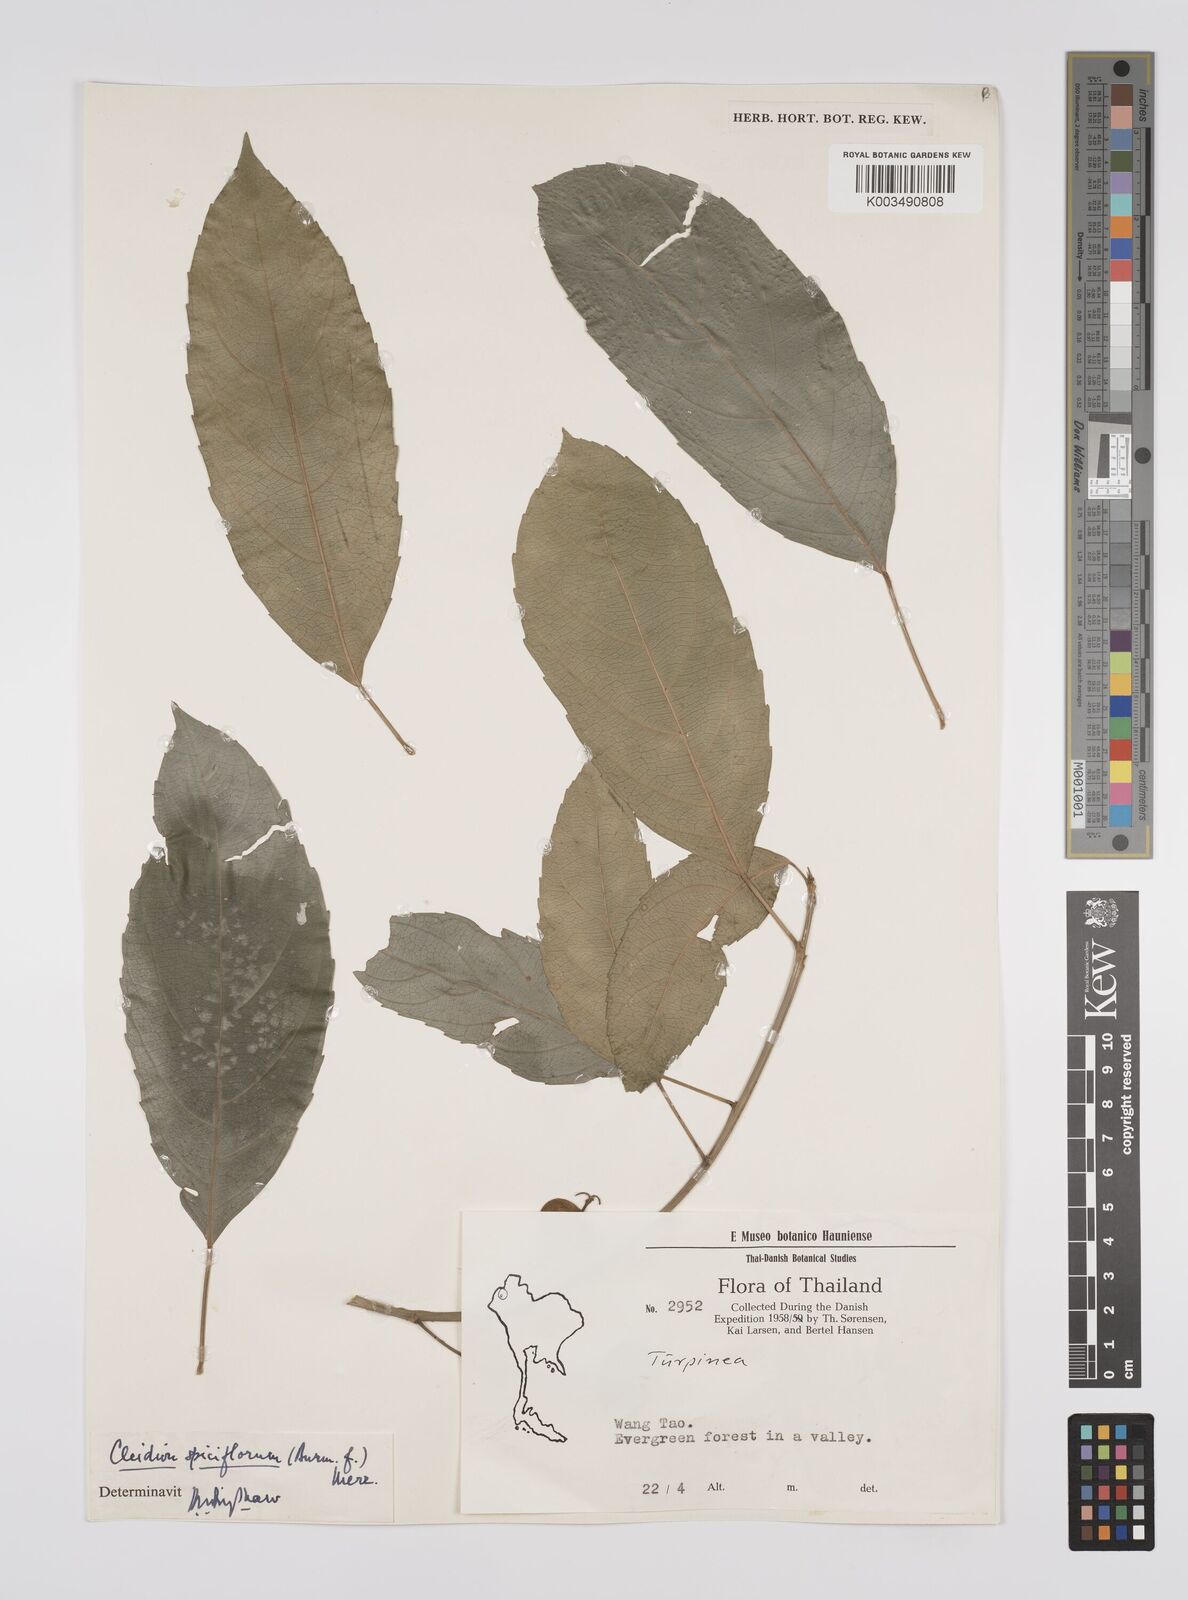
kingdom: Plantae
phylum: Tracheophyta
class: Magnoliopsida
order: Malpighiales
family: Euphorbiaceae
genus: Acalypha
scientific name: Acalypha spiciflora
